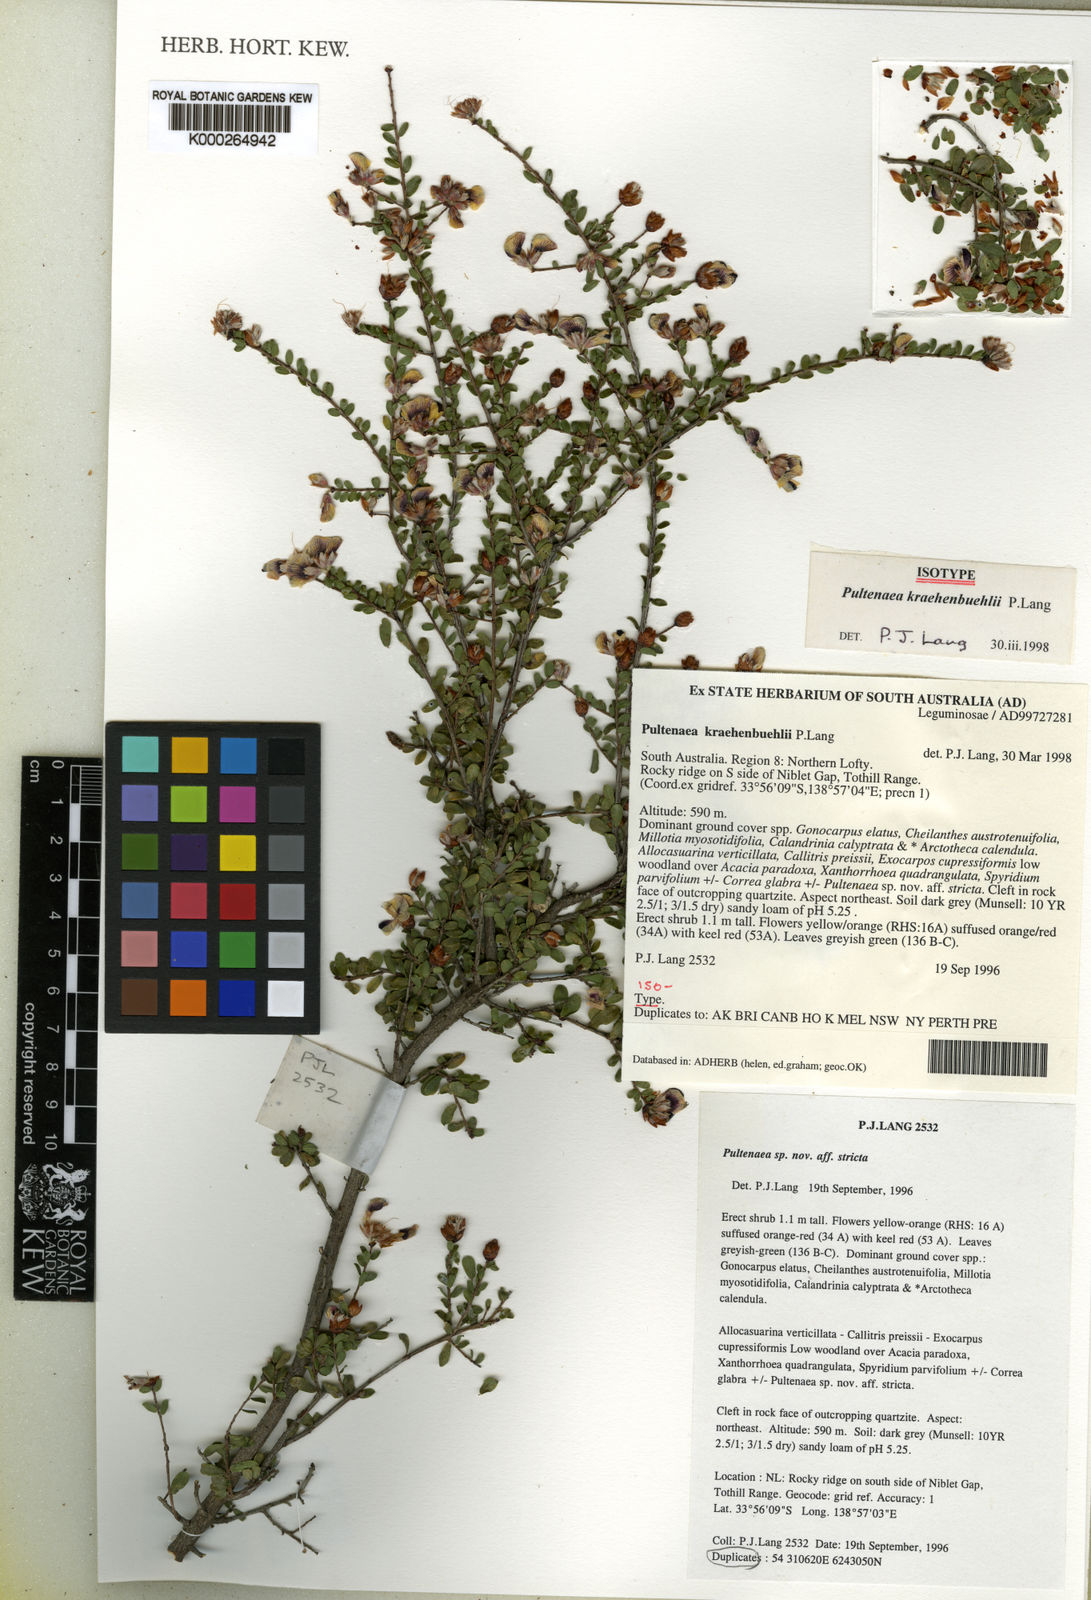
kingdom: Plantae
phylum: Tracheophyta
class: Magnoliopsida
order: Fabales
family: Fabaceae
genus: Pultenaea
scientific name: Pultenaea kraehenbuehlii
